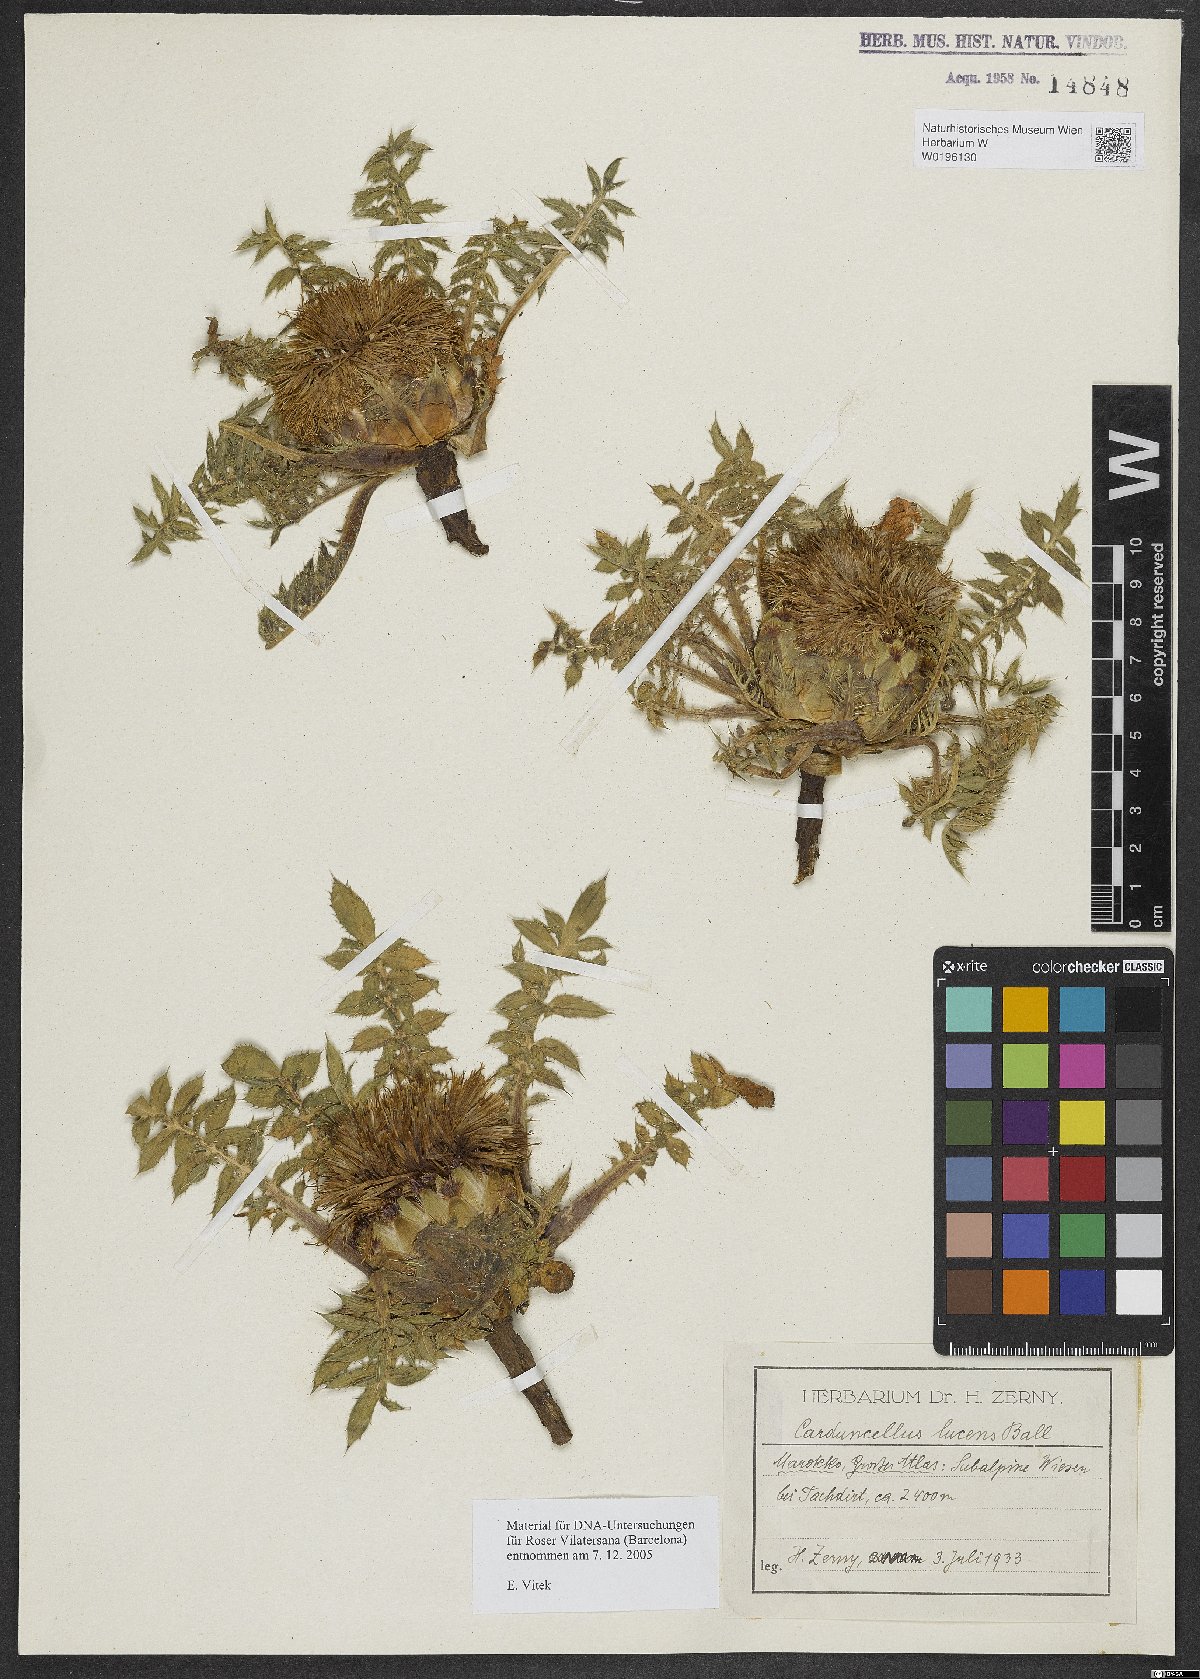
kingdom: Plantae
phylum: Tracheophyta
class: Magnoliopsida
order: Asterales
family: Asteraceae
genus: Carduncellus
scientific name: Carduncellus lucens
